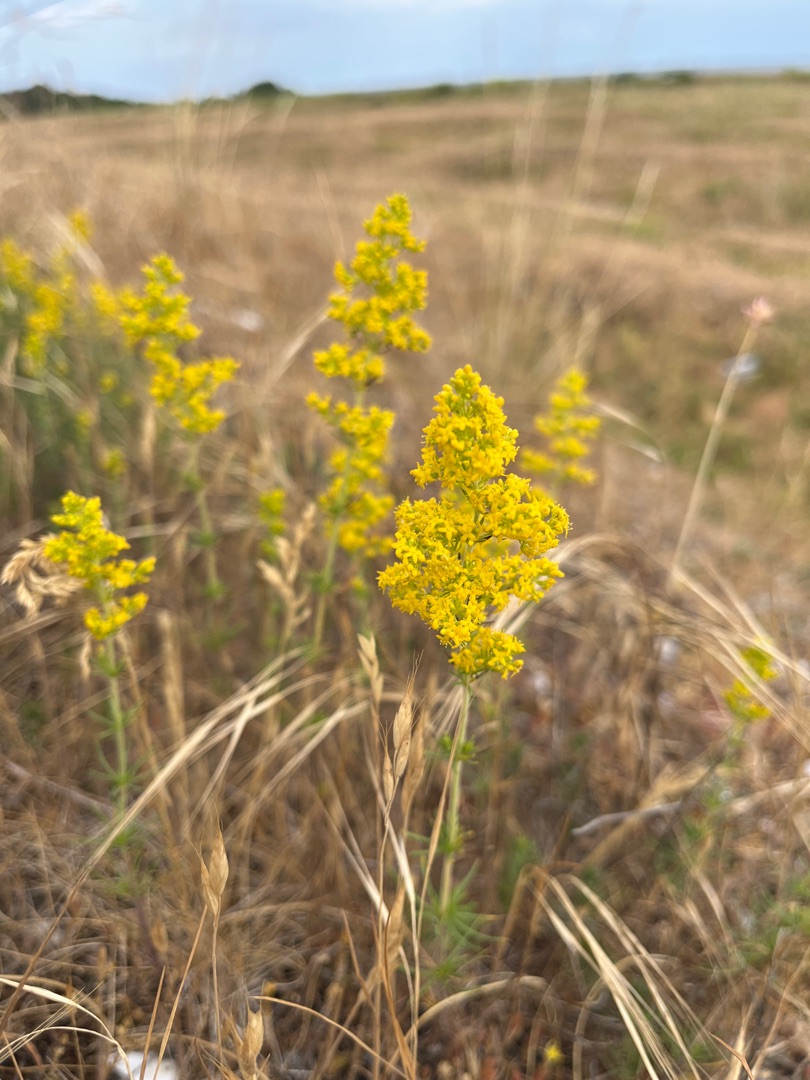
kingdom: Plantae
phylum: Tracheophyta
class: Magnoliopsida
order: Gentianales
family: Rubiaceae
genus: Galium
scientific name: Galium verum
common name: Gul snerre
